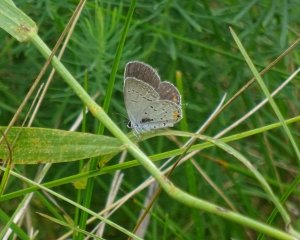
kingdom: Animalia
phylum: Arthropoda
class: Insecta
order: Lepidoptera
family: Lycaenidae
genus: Elkalyce
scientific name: Elkalyce comyntas
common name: Eastern Tailed-Blue
